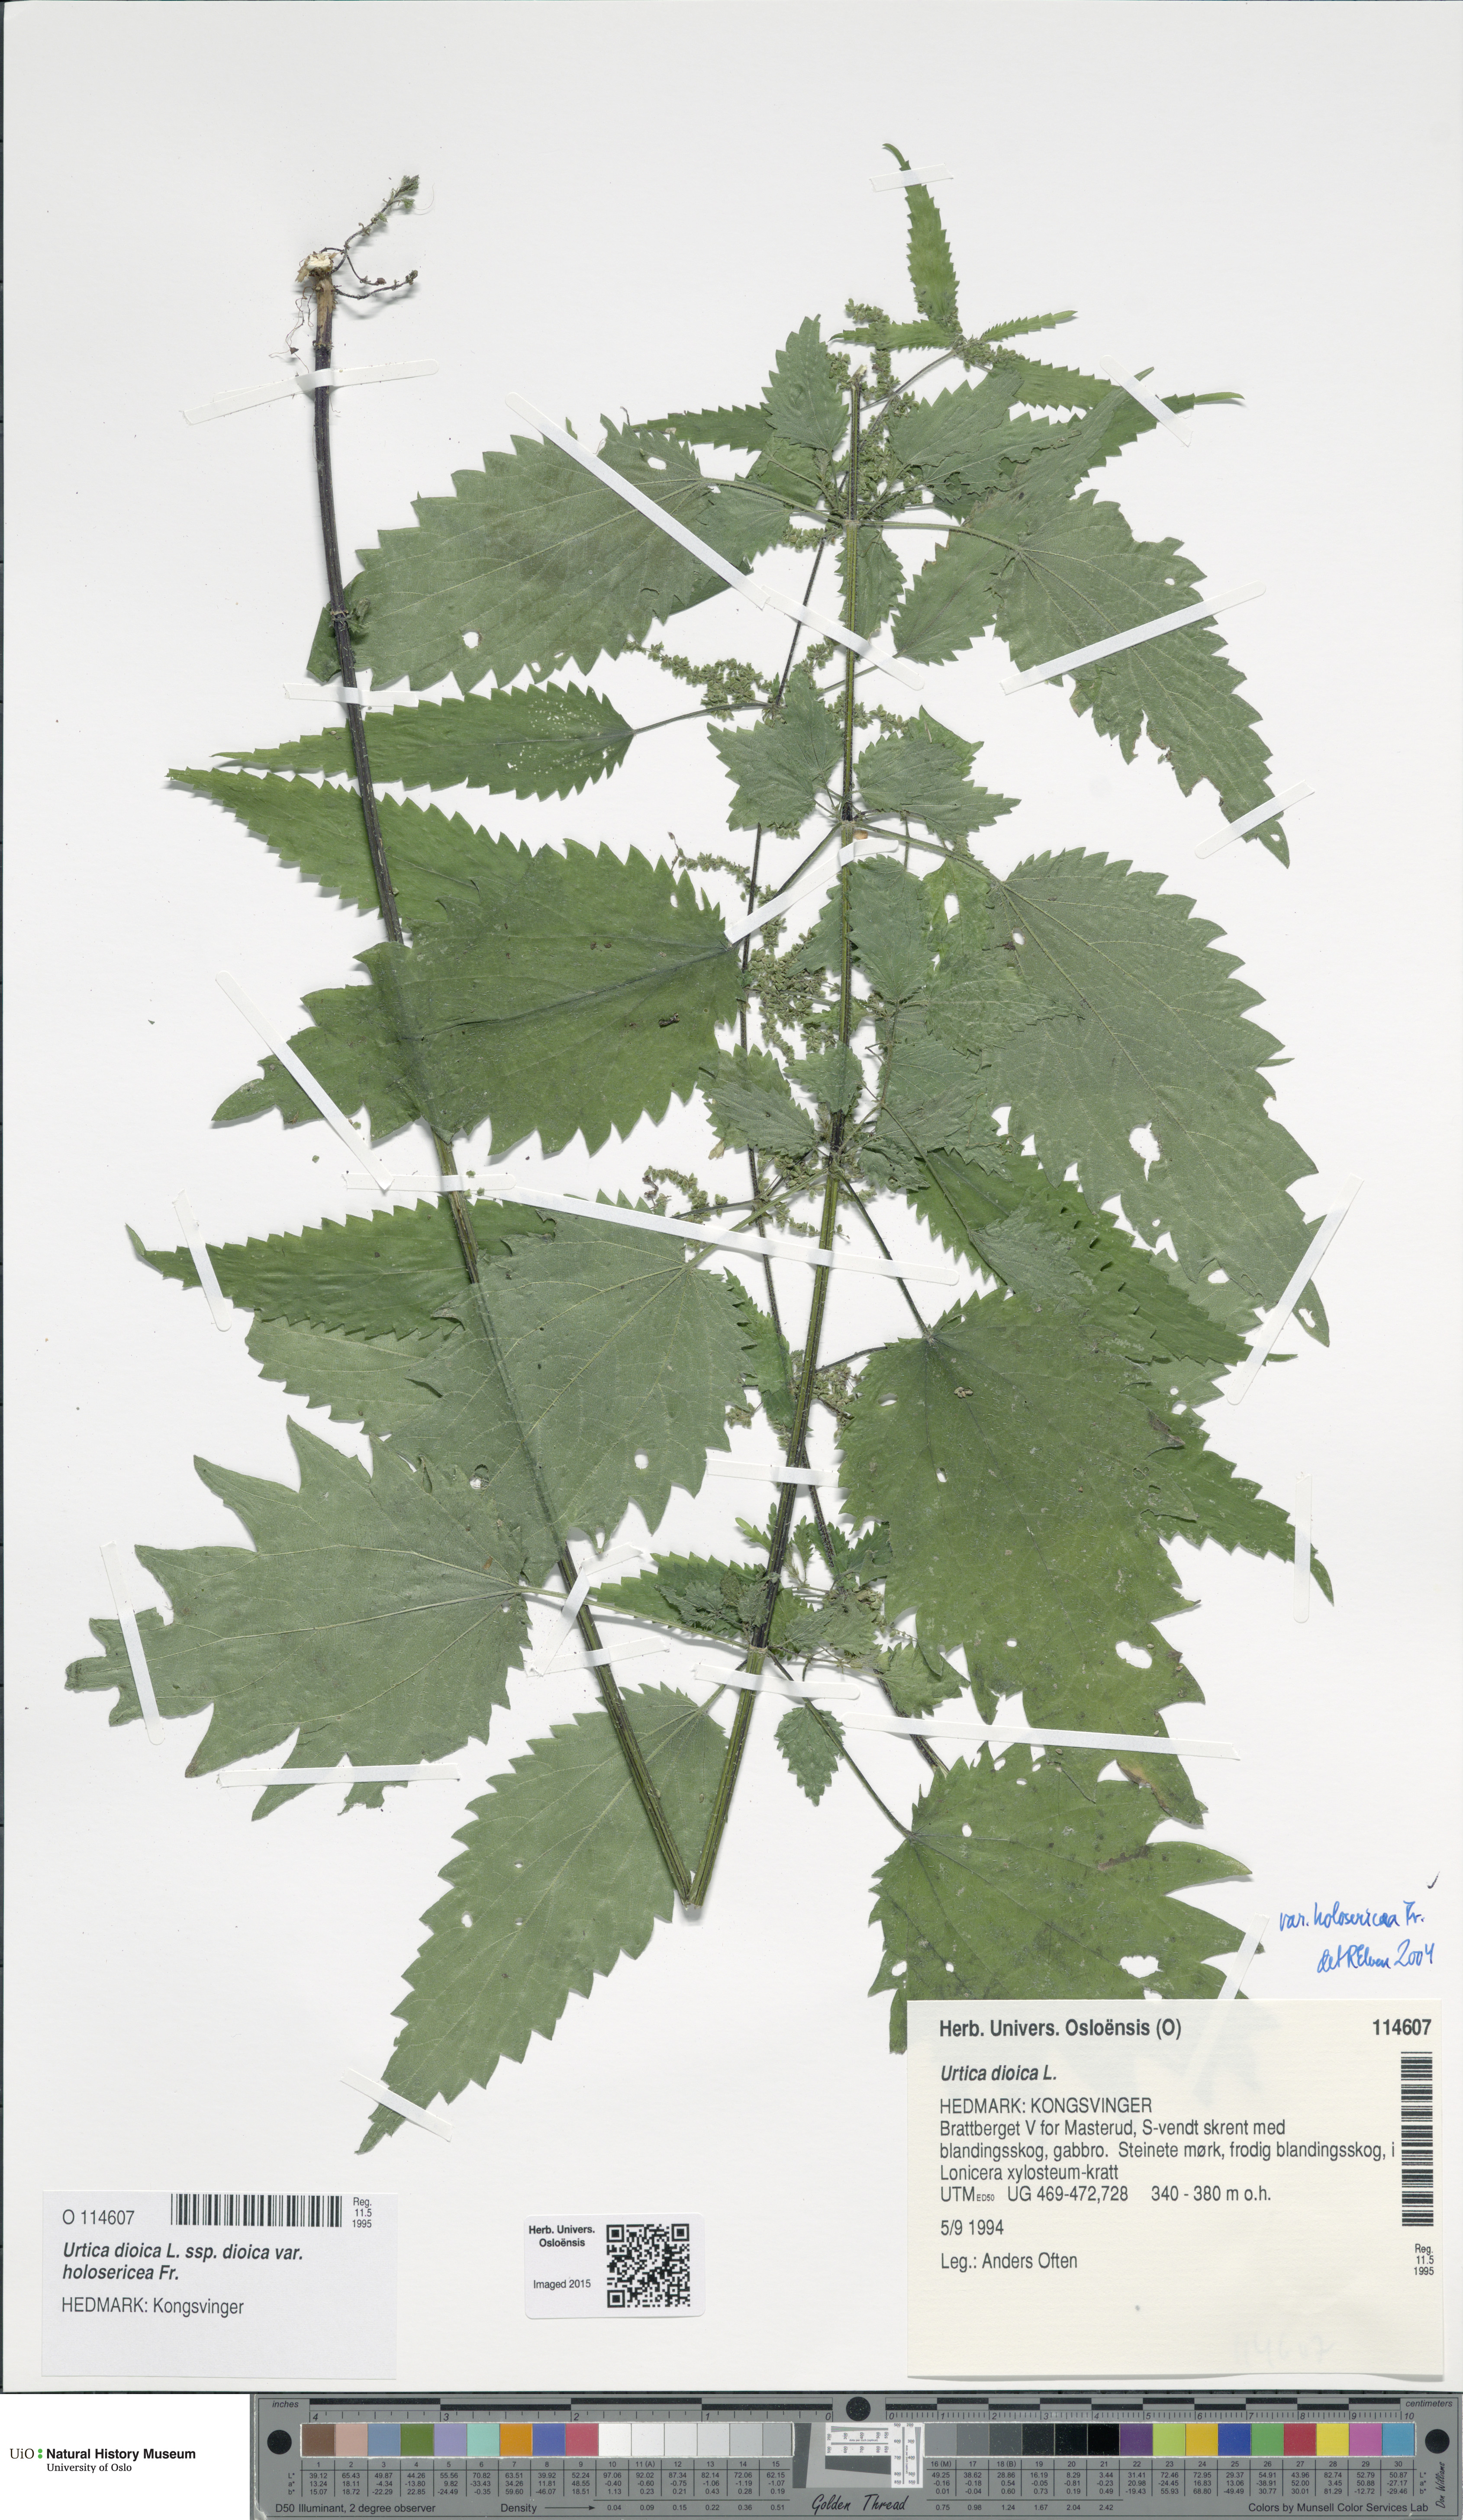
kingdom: Plantae
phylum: Tracheophyta
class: Magnoliopsida
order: Rosales
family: Urticaceae
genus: Urtica
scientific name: Urtica dioica
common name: Common nettle
